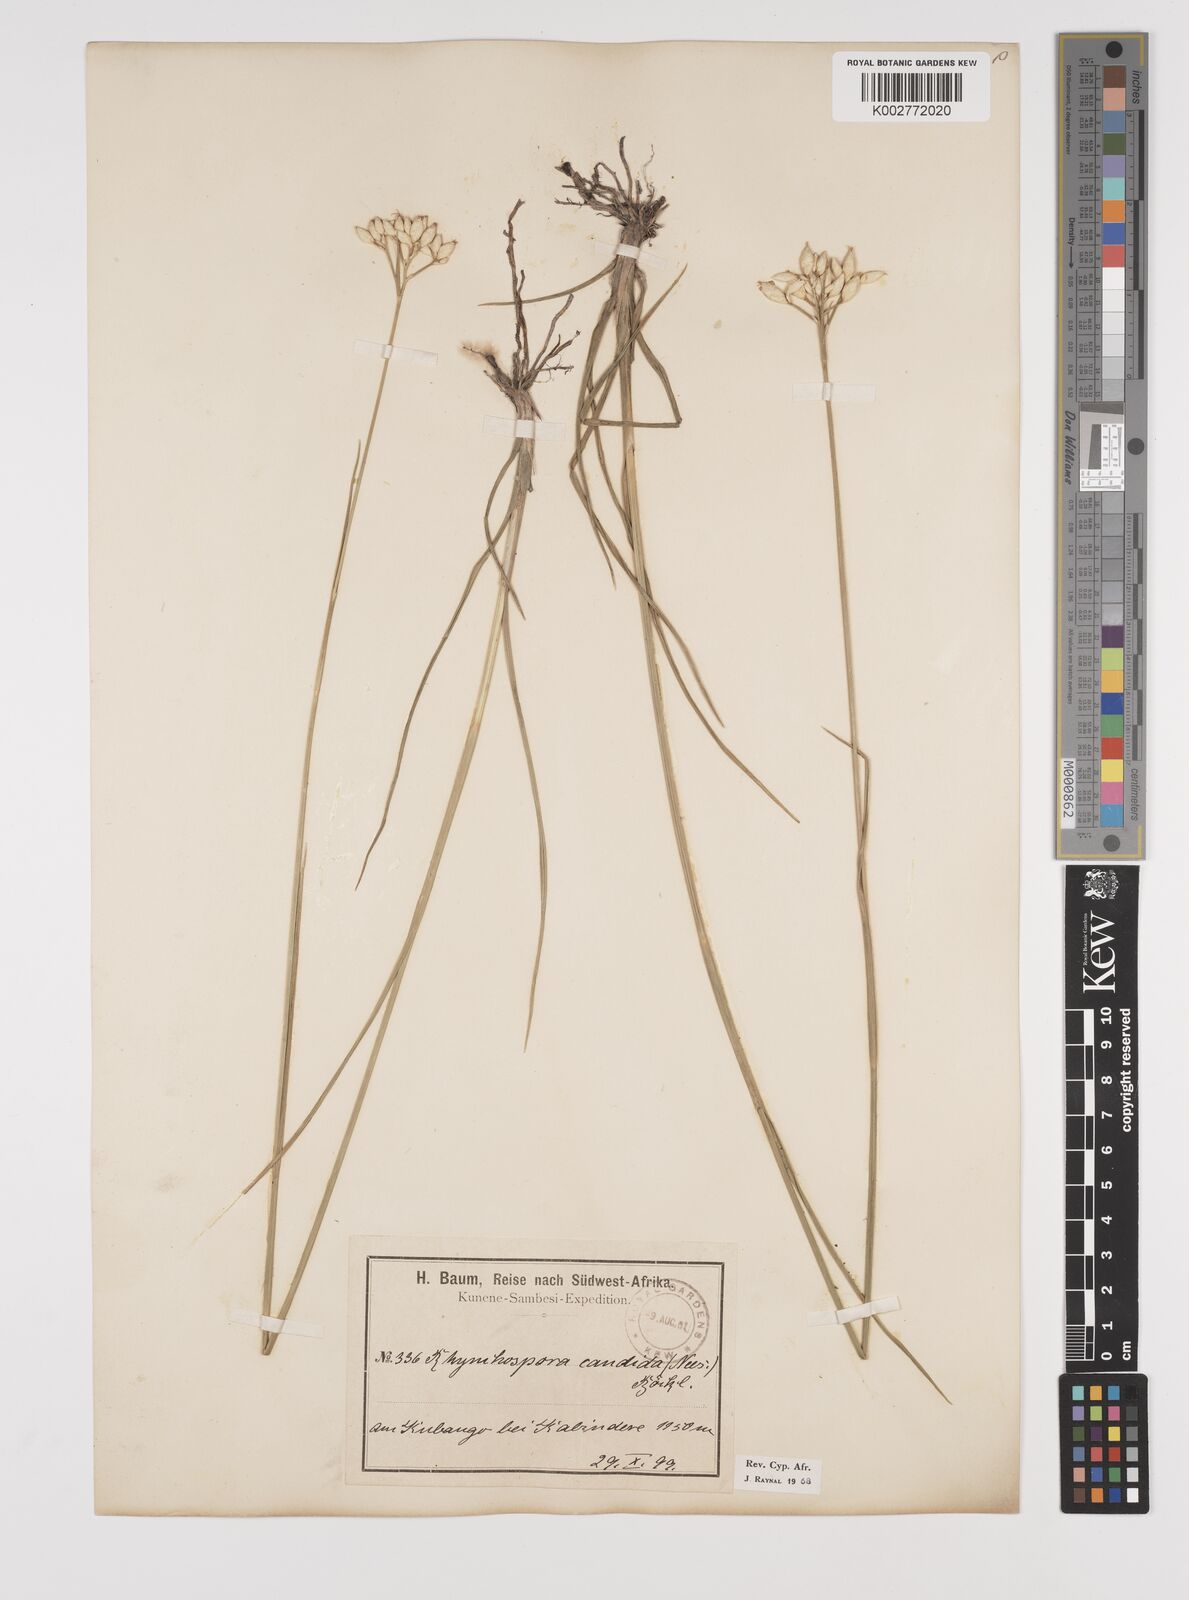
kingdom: Plantae
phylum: Tracheophyta
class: Liliopsida
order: Poales
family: Cyperaceae
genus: Rhynchospora
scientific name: Rhynchospora candida
